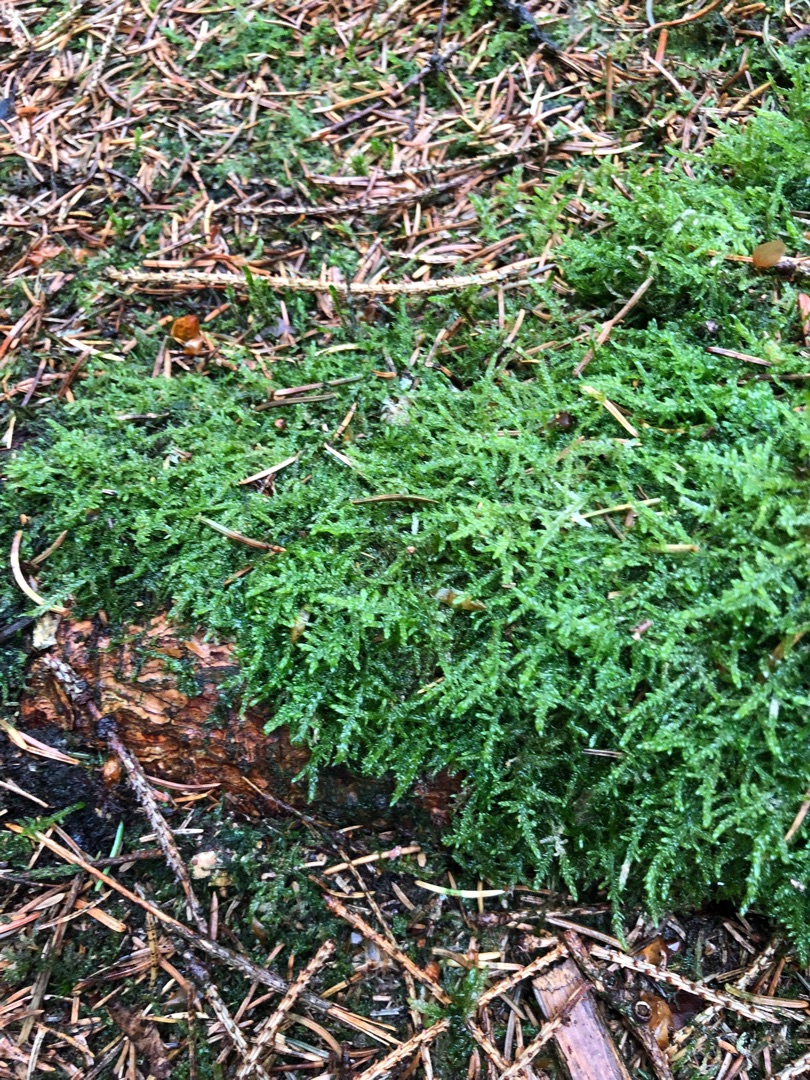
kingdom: Plantae
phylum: Bryophyta
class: Bryopsida
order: Hypnales
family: Hypnaceae
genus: Hypnum
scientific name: Hypnum jutlandicum
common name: Hede-cypresmos
